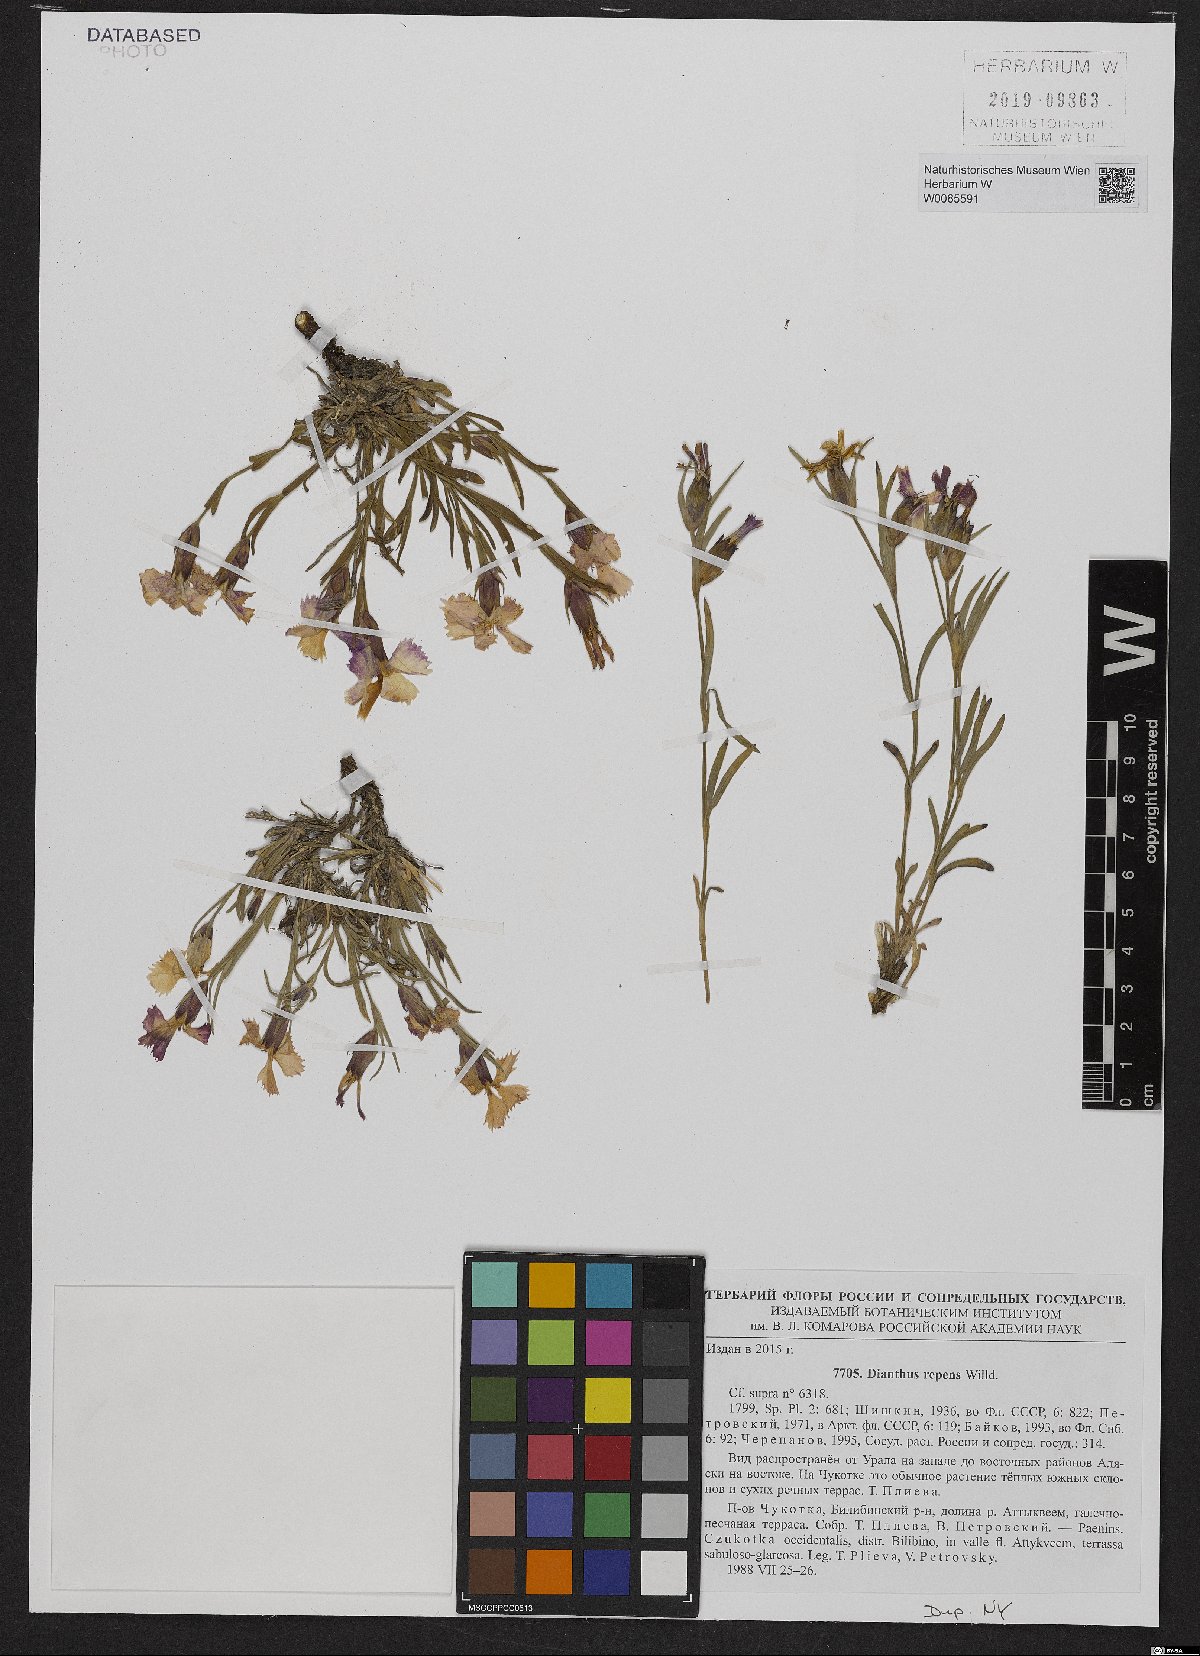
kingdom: Plantae
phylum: Tracheophyta
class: Magnoliopsida
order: Caryophyllales
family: Caryophyllaceae
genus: Dianthus
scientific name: Dianthus repens
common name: Northern pink
